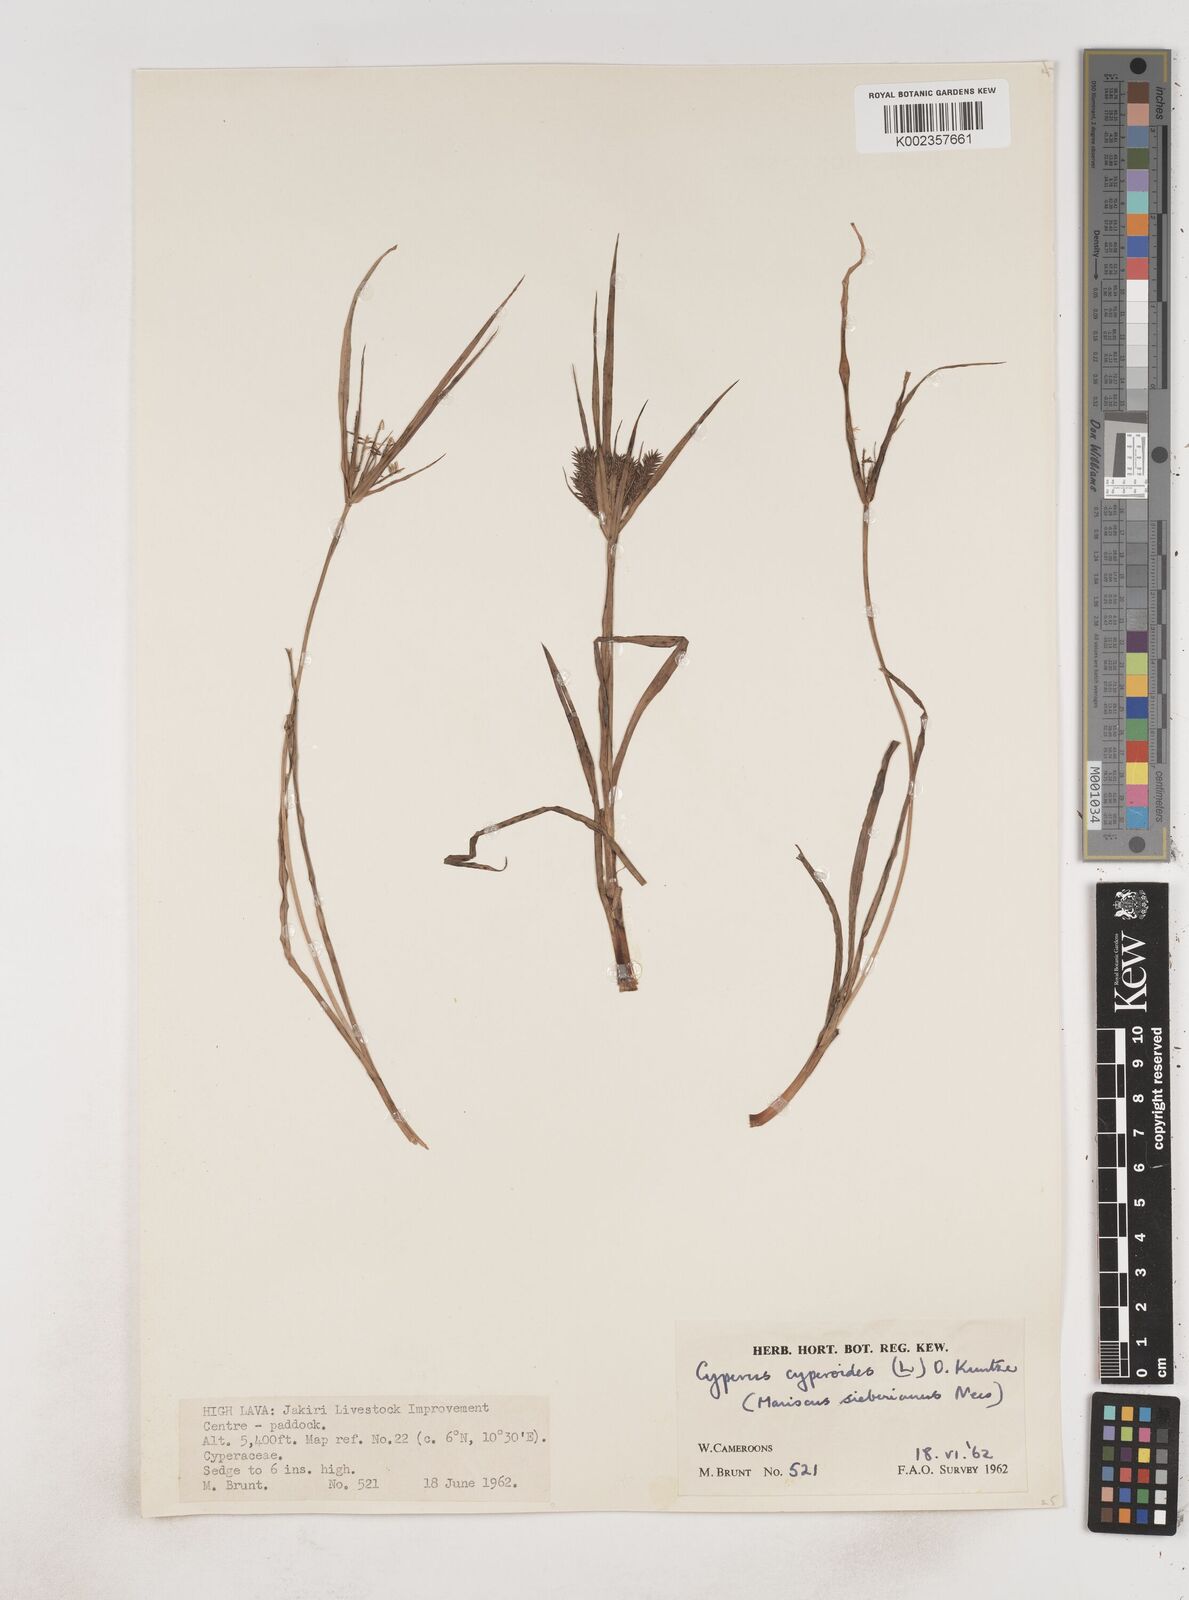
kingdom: Plantae
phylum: Tracheophyta
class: Liliopsida
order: Poales
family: Cyperaceae
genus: Cyperus
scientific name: Cyperus cyperoides
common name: Pacific island flat sedge
